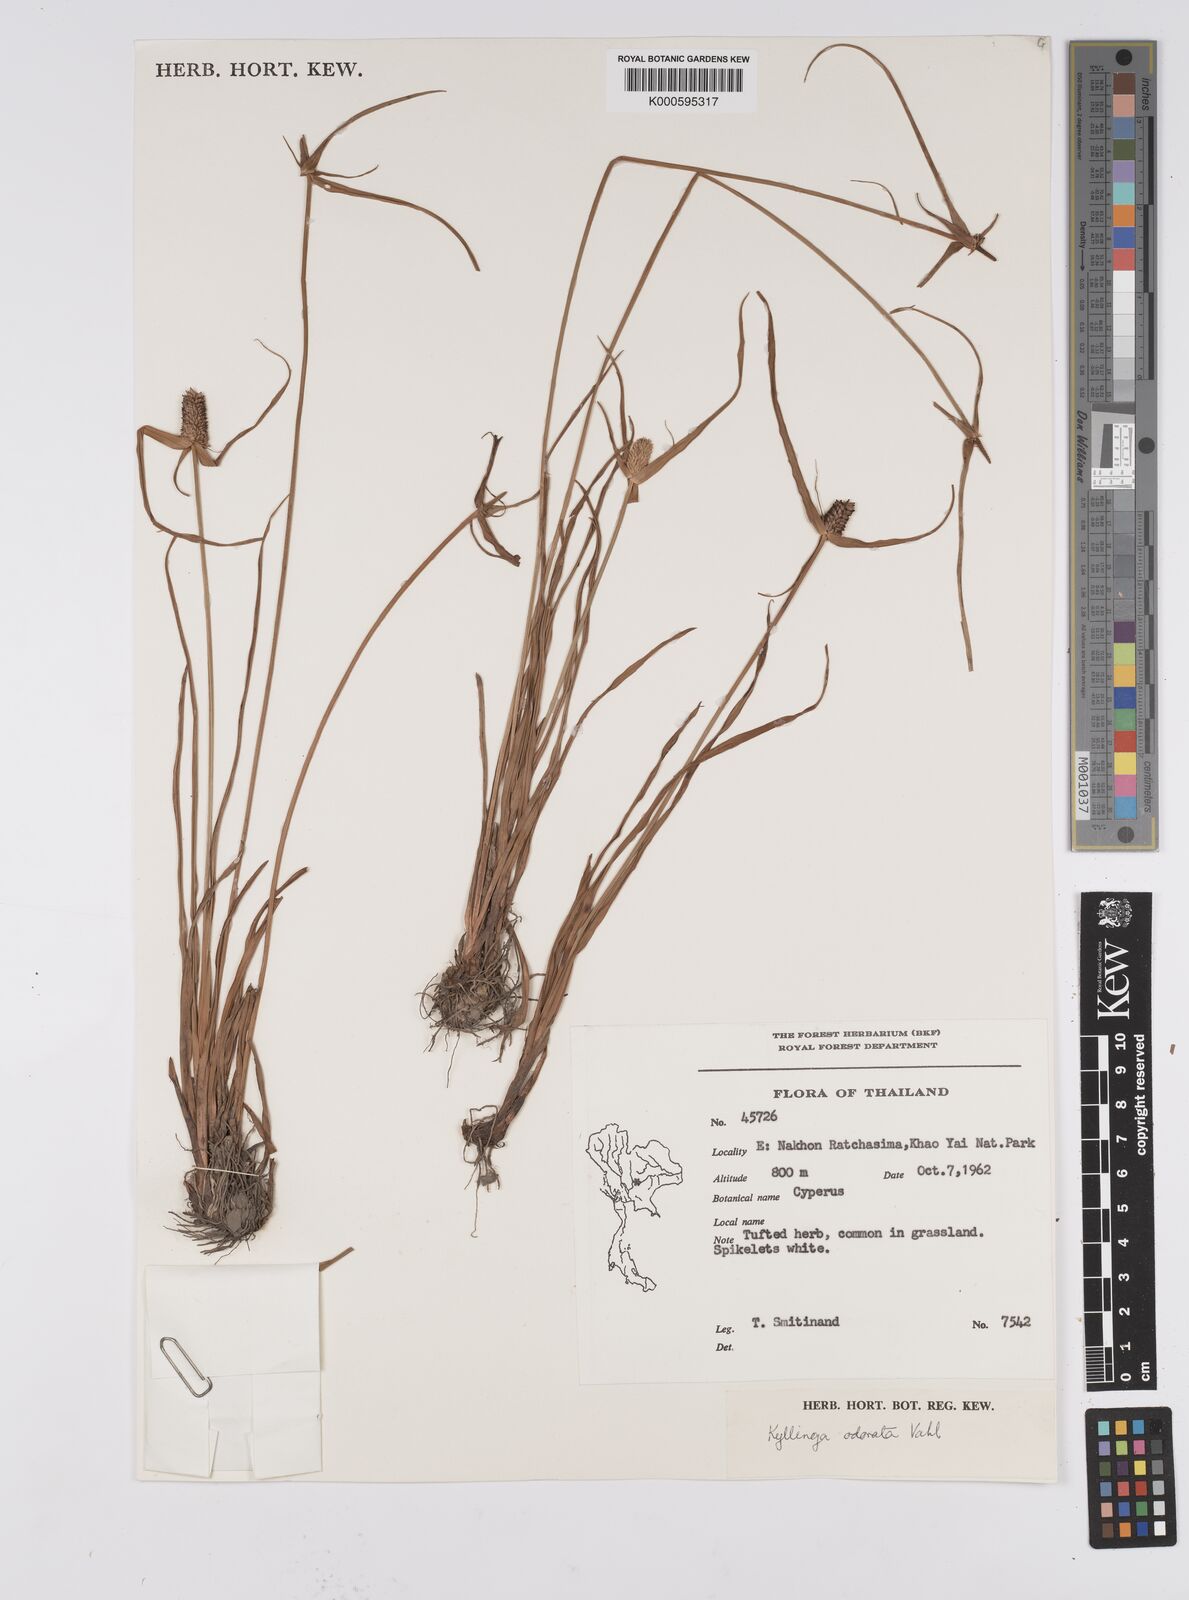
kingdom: Plantae
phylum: Tracheophyta
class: Liliopsida
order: Poales
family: Cyperaceae
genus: Cyperus
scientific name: Cyperus sesquiflorus
